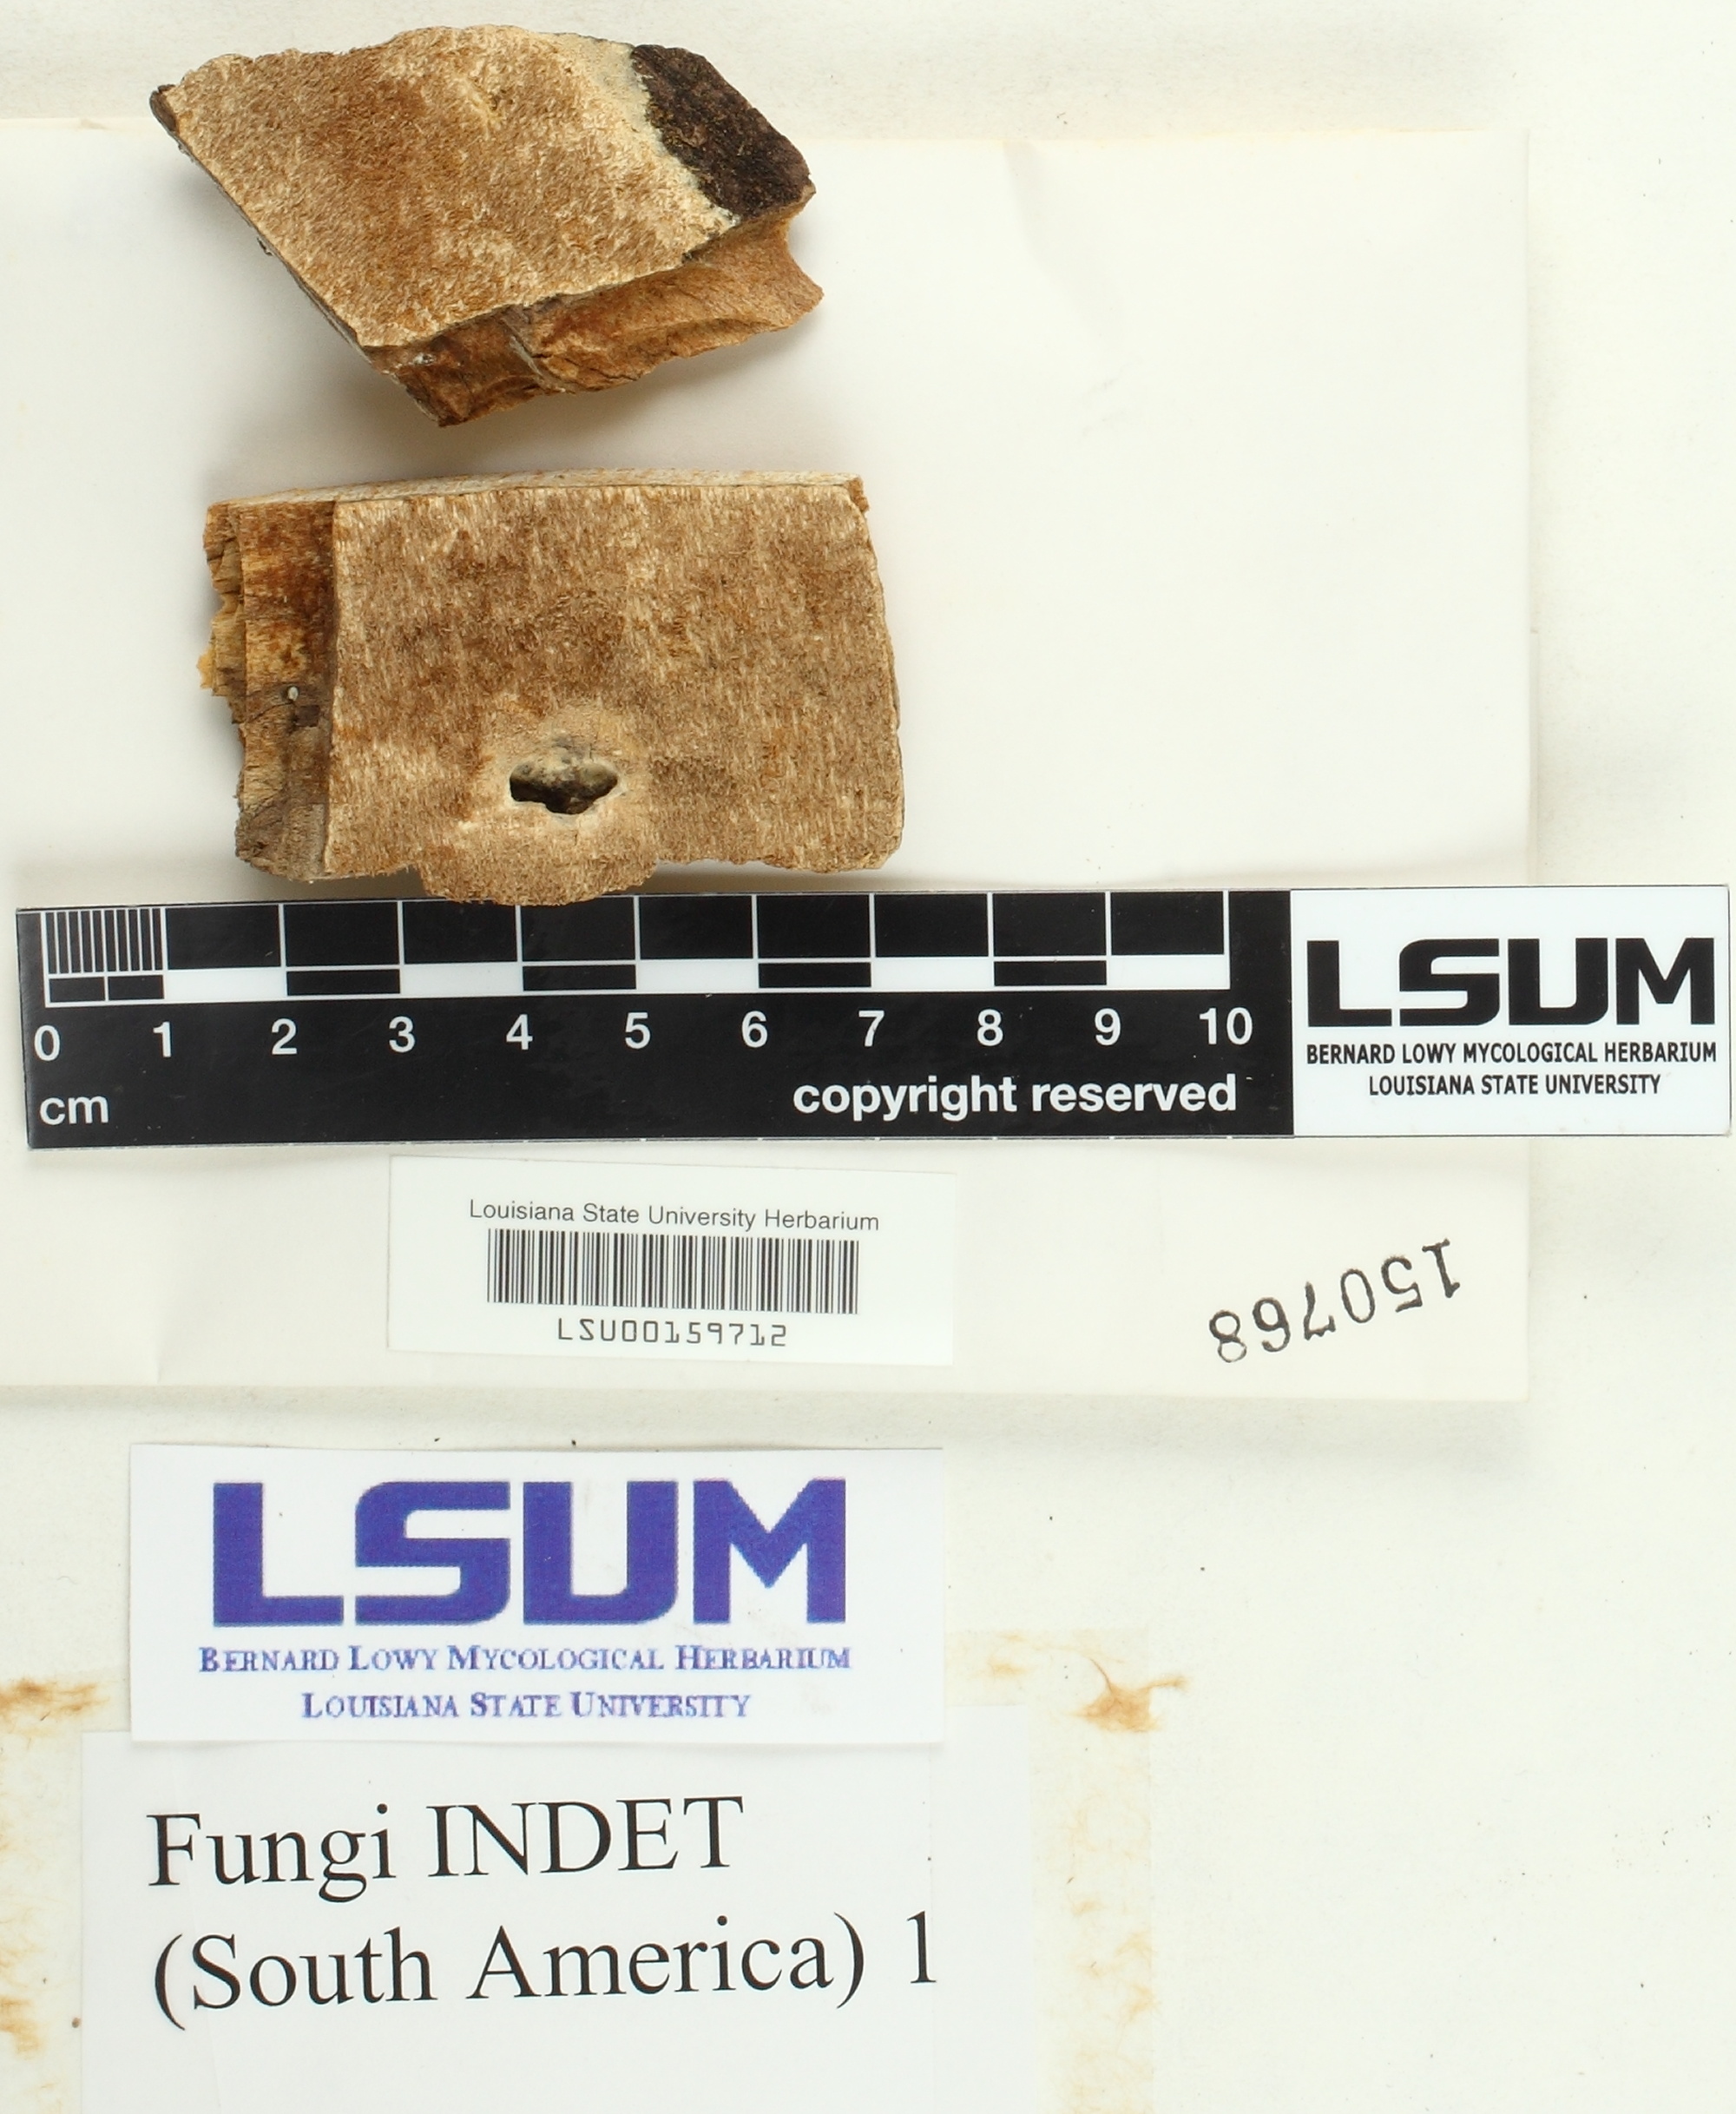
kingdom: Fungi
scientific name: Fungi
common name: Fungi
